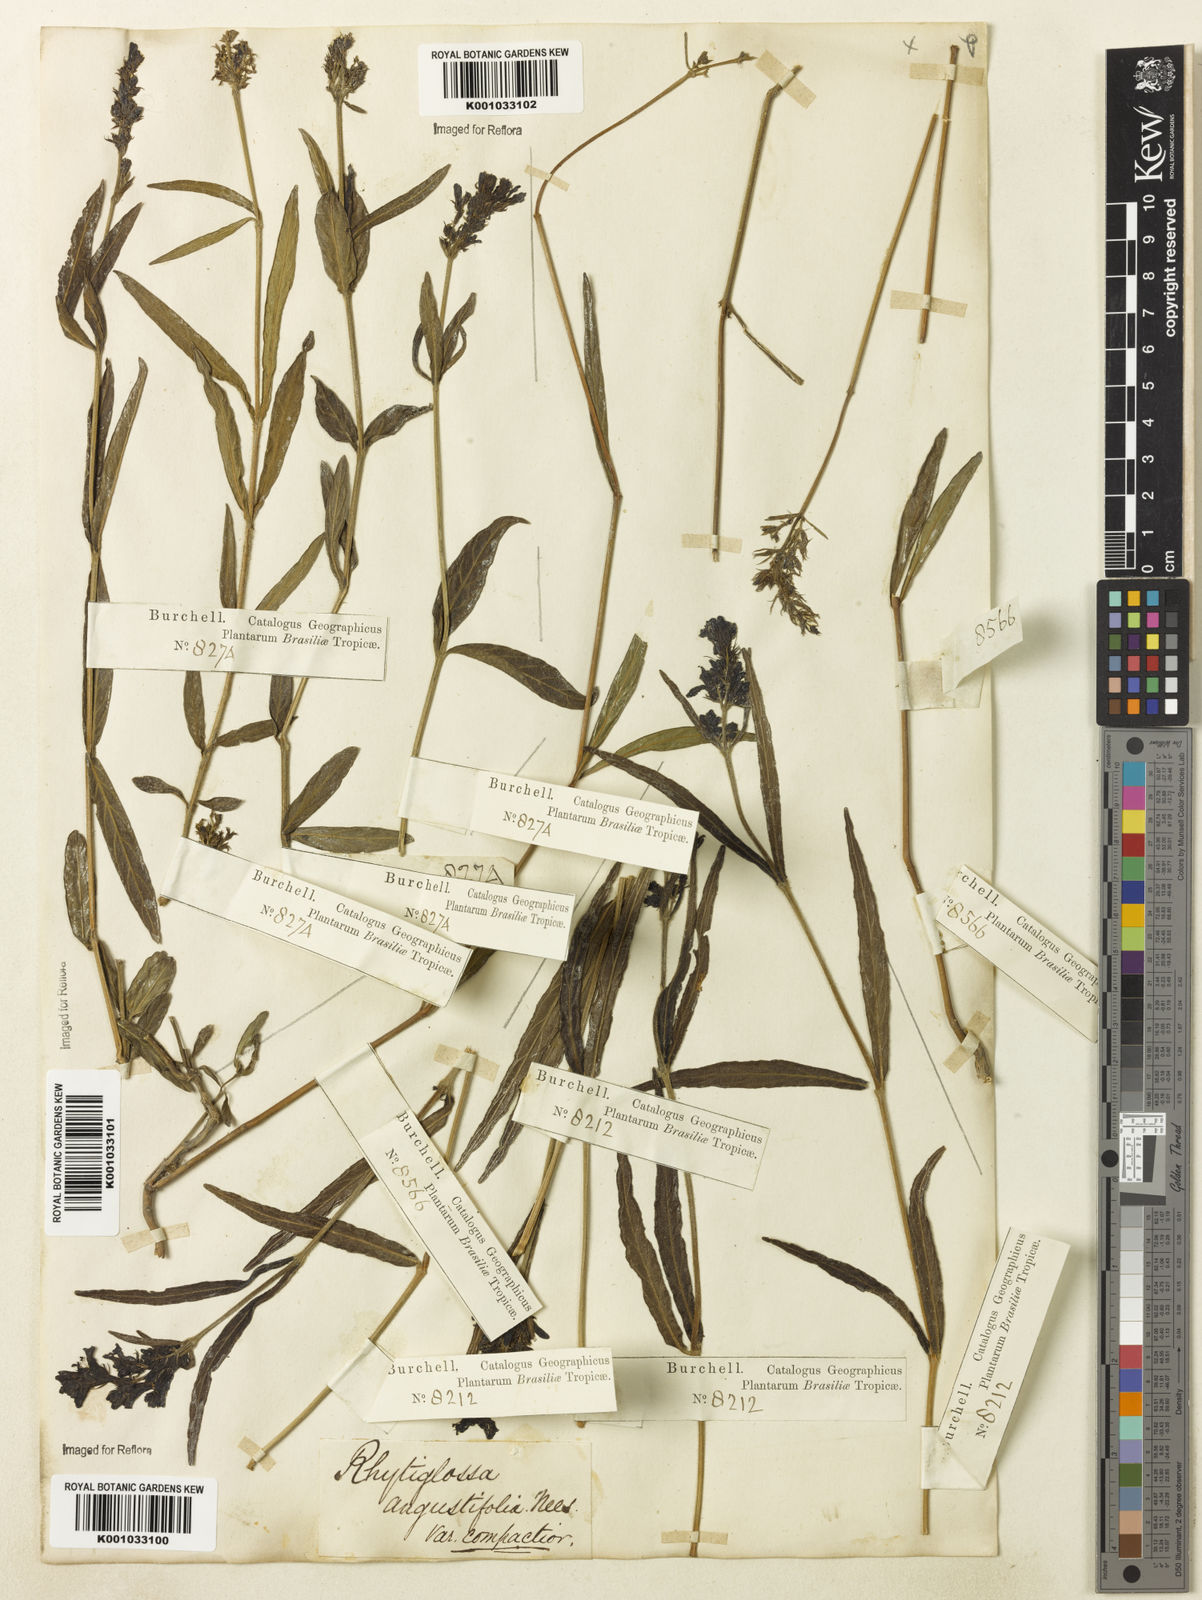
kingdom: Plantae
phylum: Tracheophyta
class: Magnoliopsida
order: Lamiales
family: Acanthaceae
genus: Dianthera
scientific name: Dianthera angustifolia
